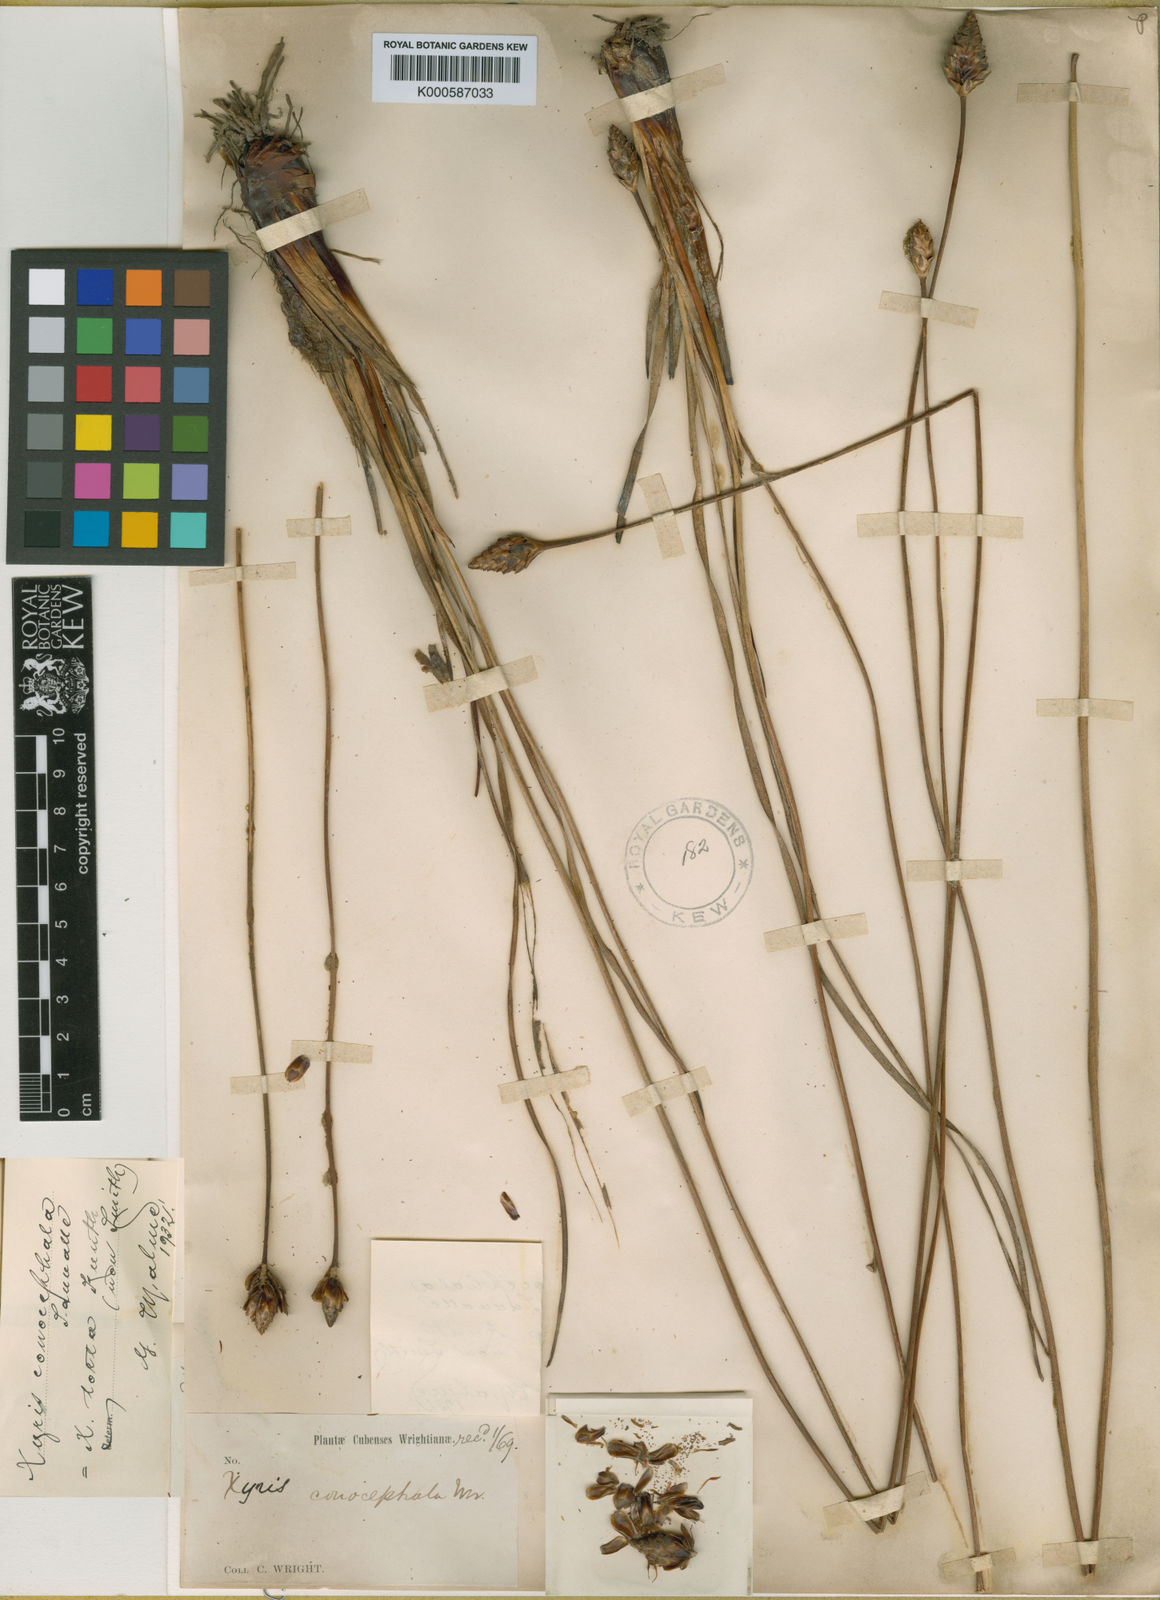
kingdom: Plantae
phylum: Tracheophyta
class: Liliopsida
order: Poales
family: Xyridaceae
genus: Xyris
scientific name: Xyris caroliniana
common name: Carolina yellow-eyed-grass
